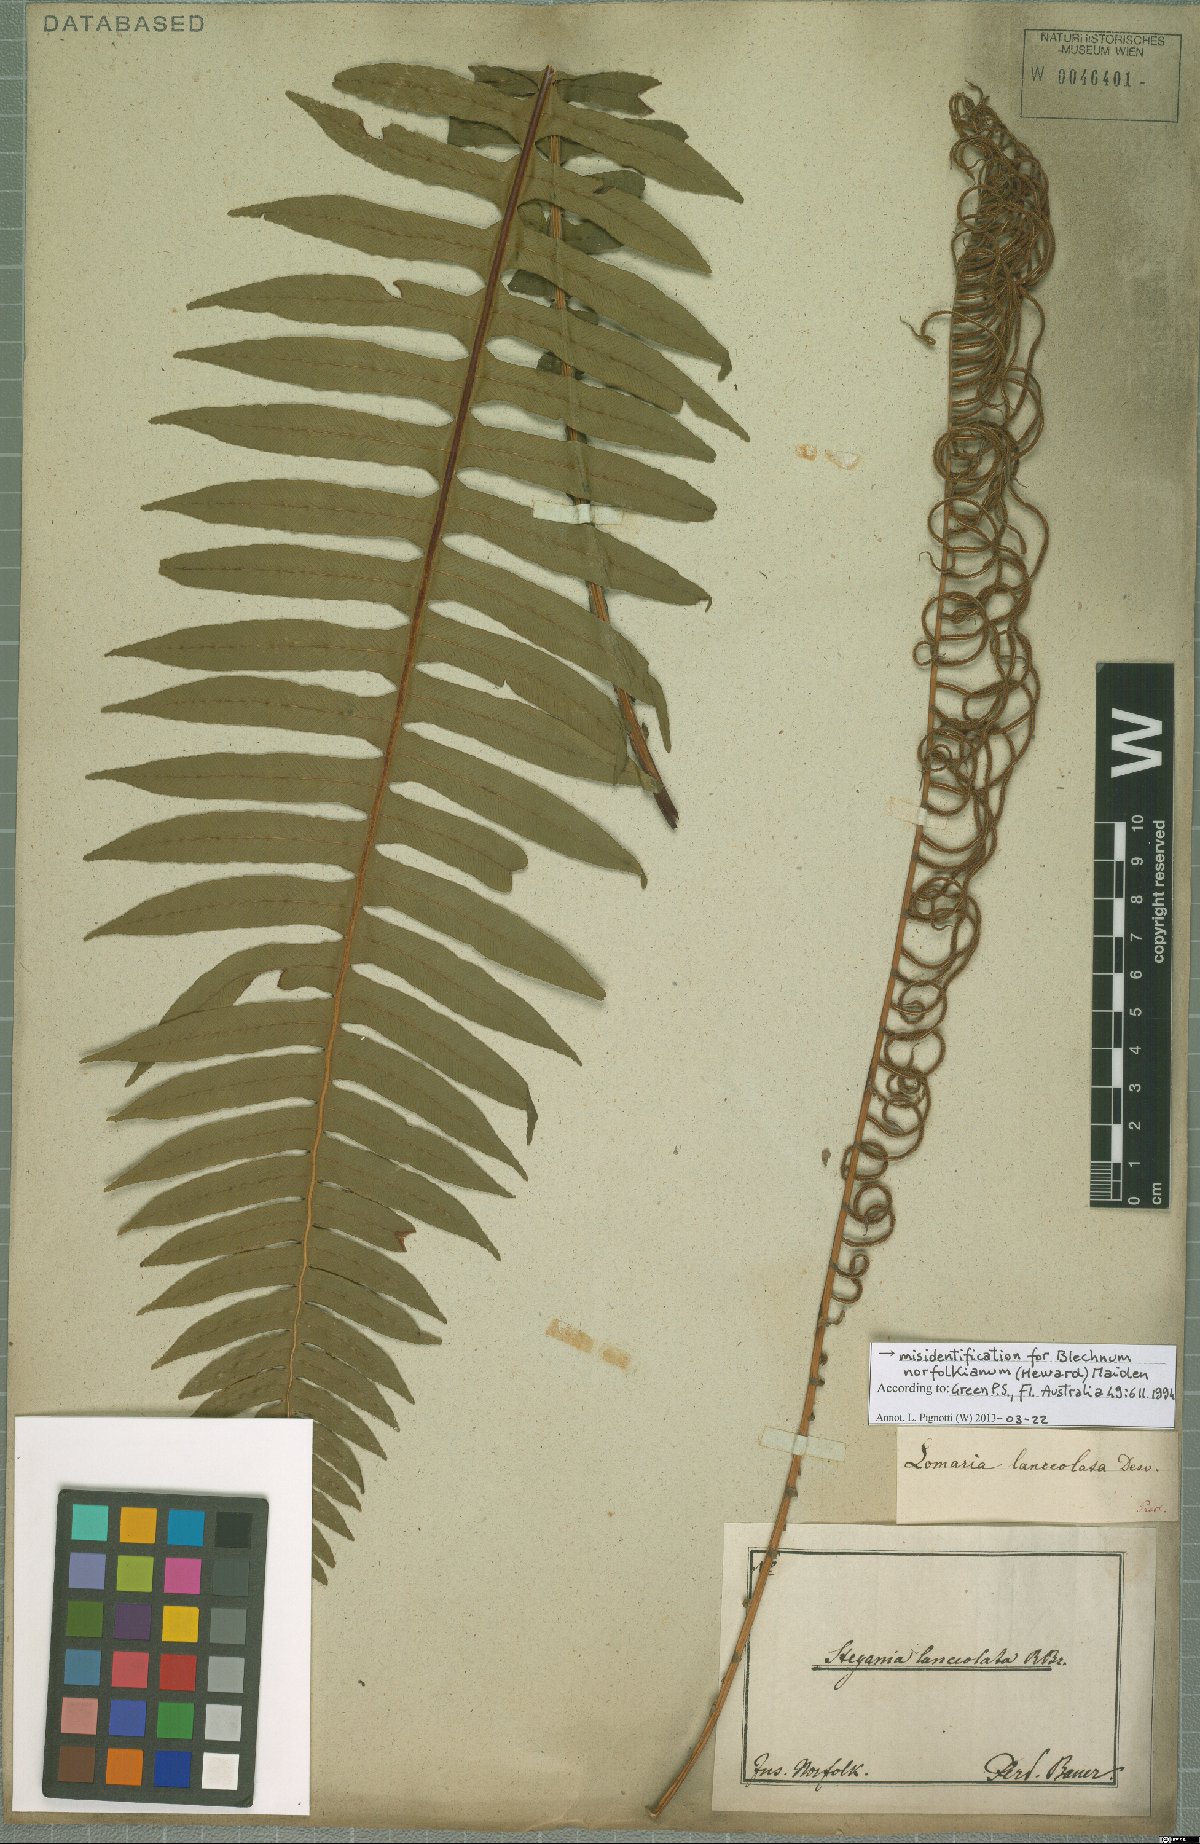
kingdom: Plantae
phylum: Tracheophyta
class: Polypodiopsida
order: Polypodiales
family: Blechnaceae
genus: Austroblechnum
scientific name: Austroblechnum norfolkianum
